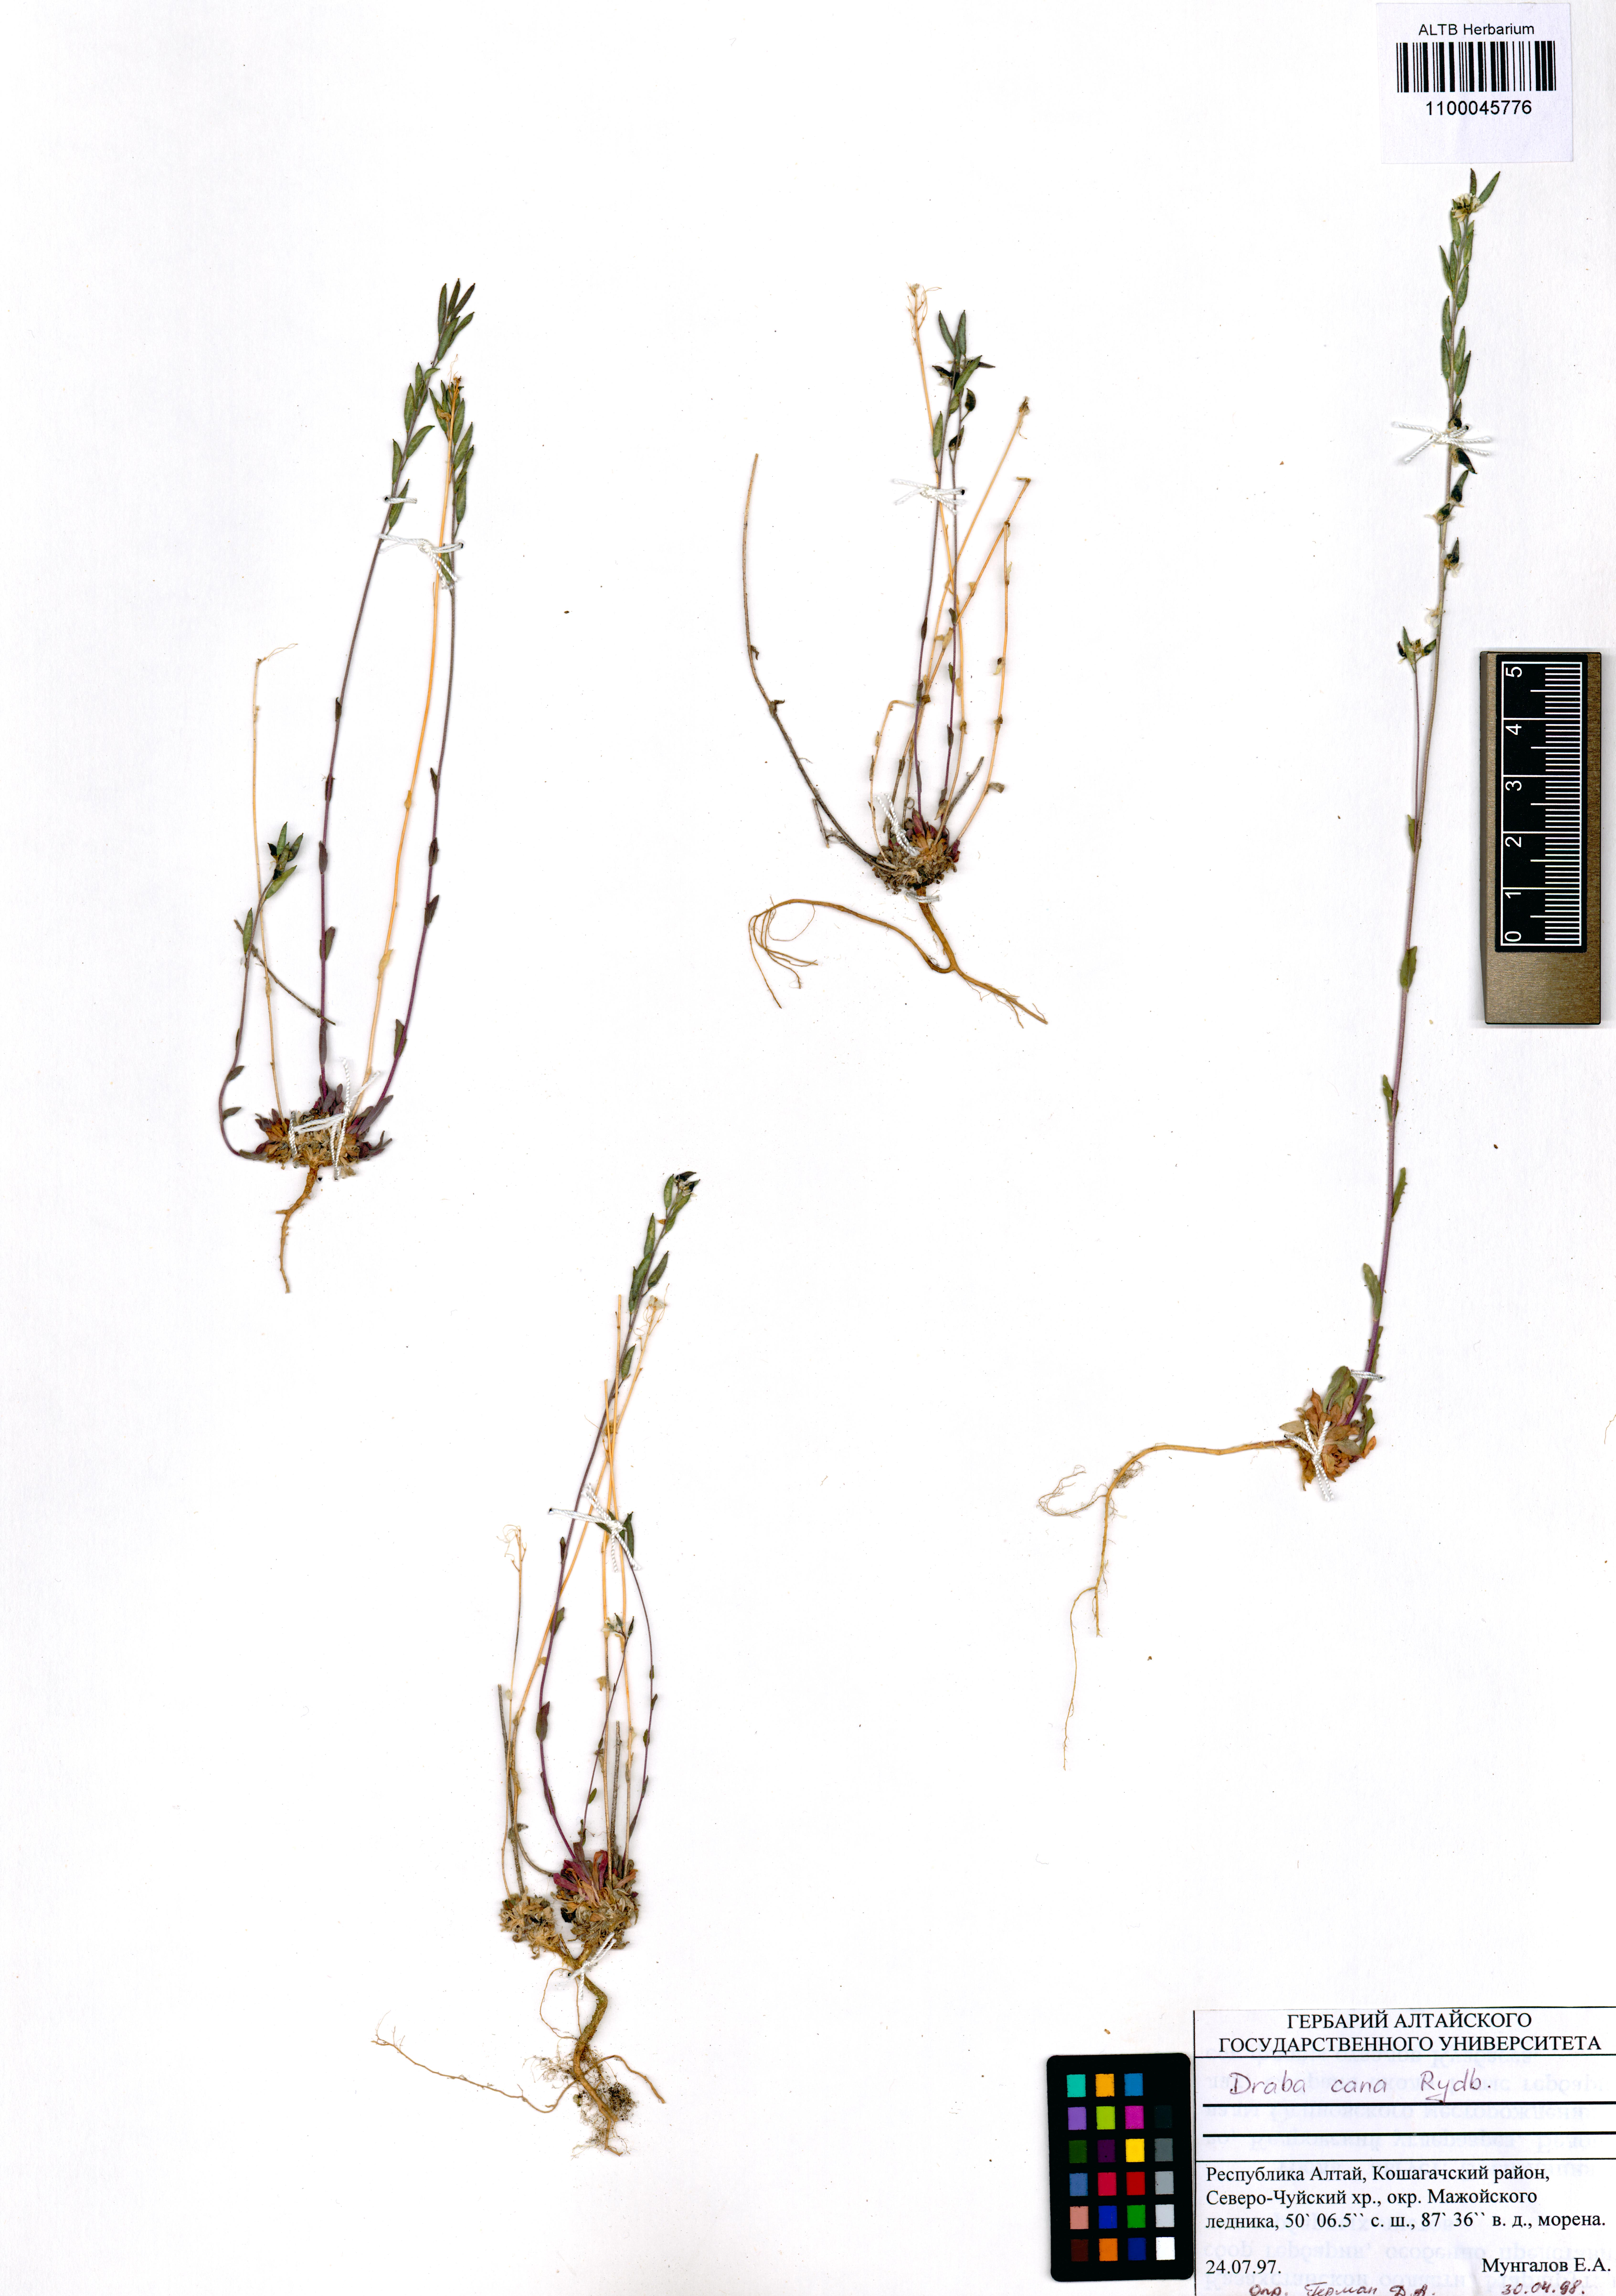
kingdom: Plantae
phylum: Tracheophyta
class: Magnoliopsida
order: Brassicales
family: Brassicaceae
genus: Draba
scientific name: Draba cana
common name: Hoary draba
